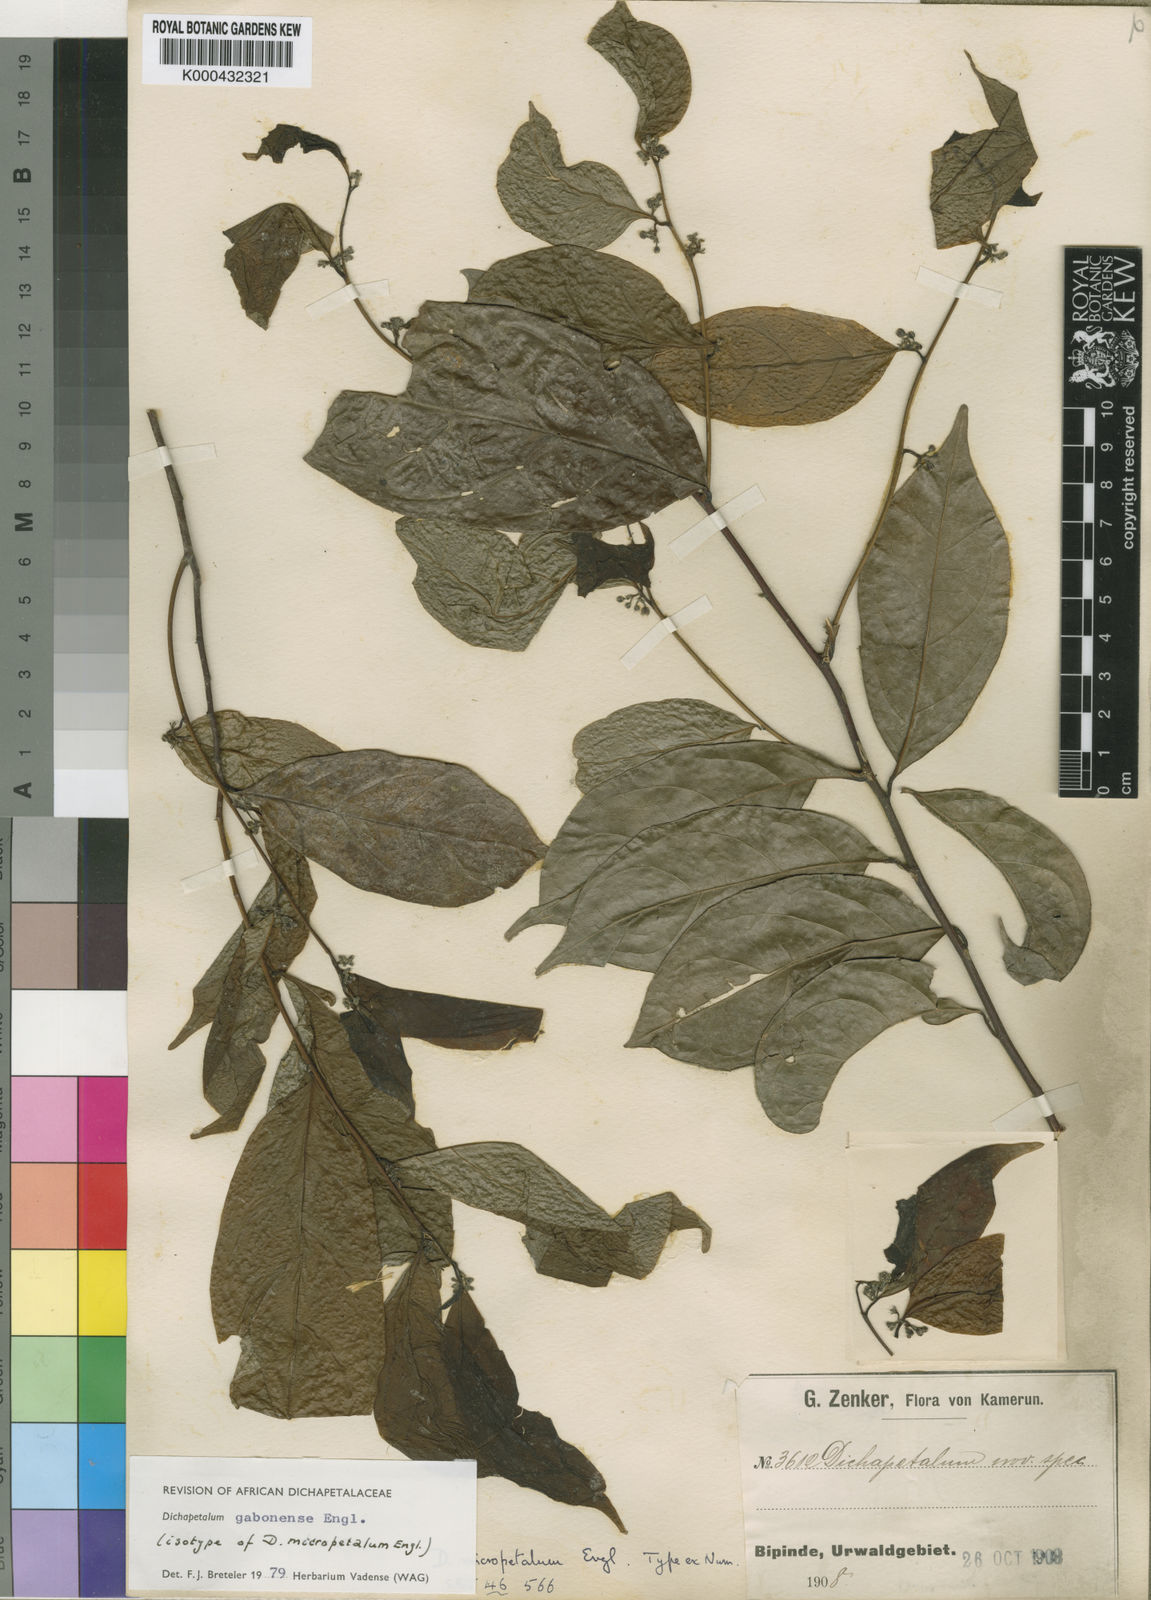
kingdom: Plantae
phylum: Tracheophyta
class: Magnoliopsida
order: Malpighiales
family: Dichapetalaceae
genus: Dichapetalum
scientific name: Dichapetalum gabonense
